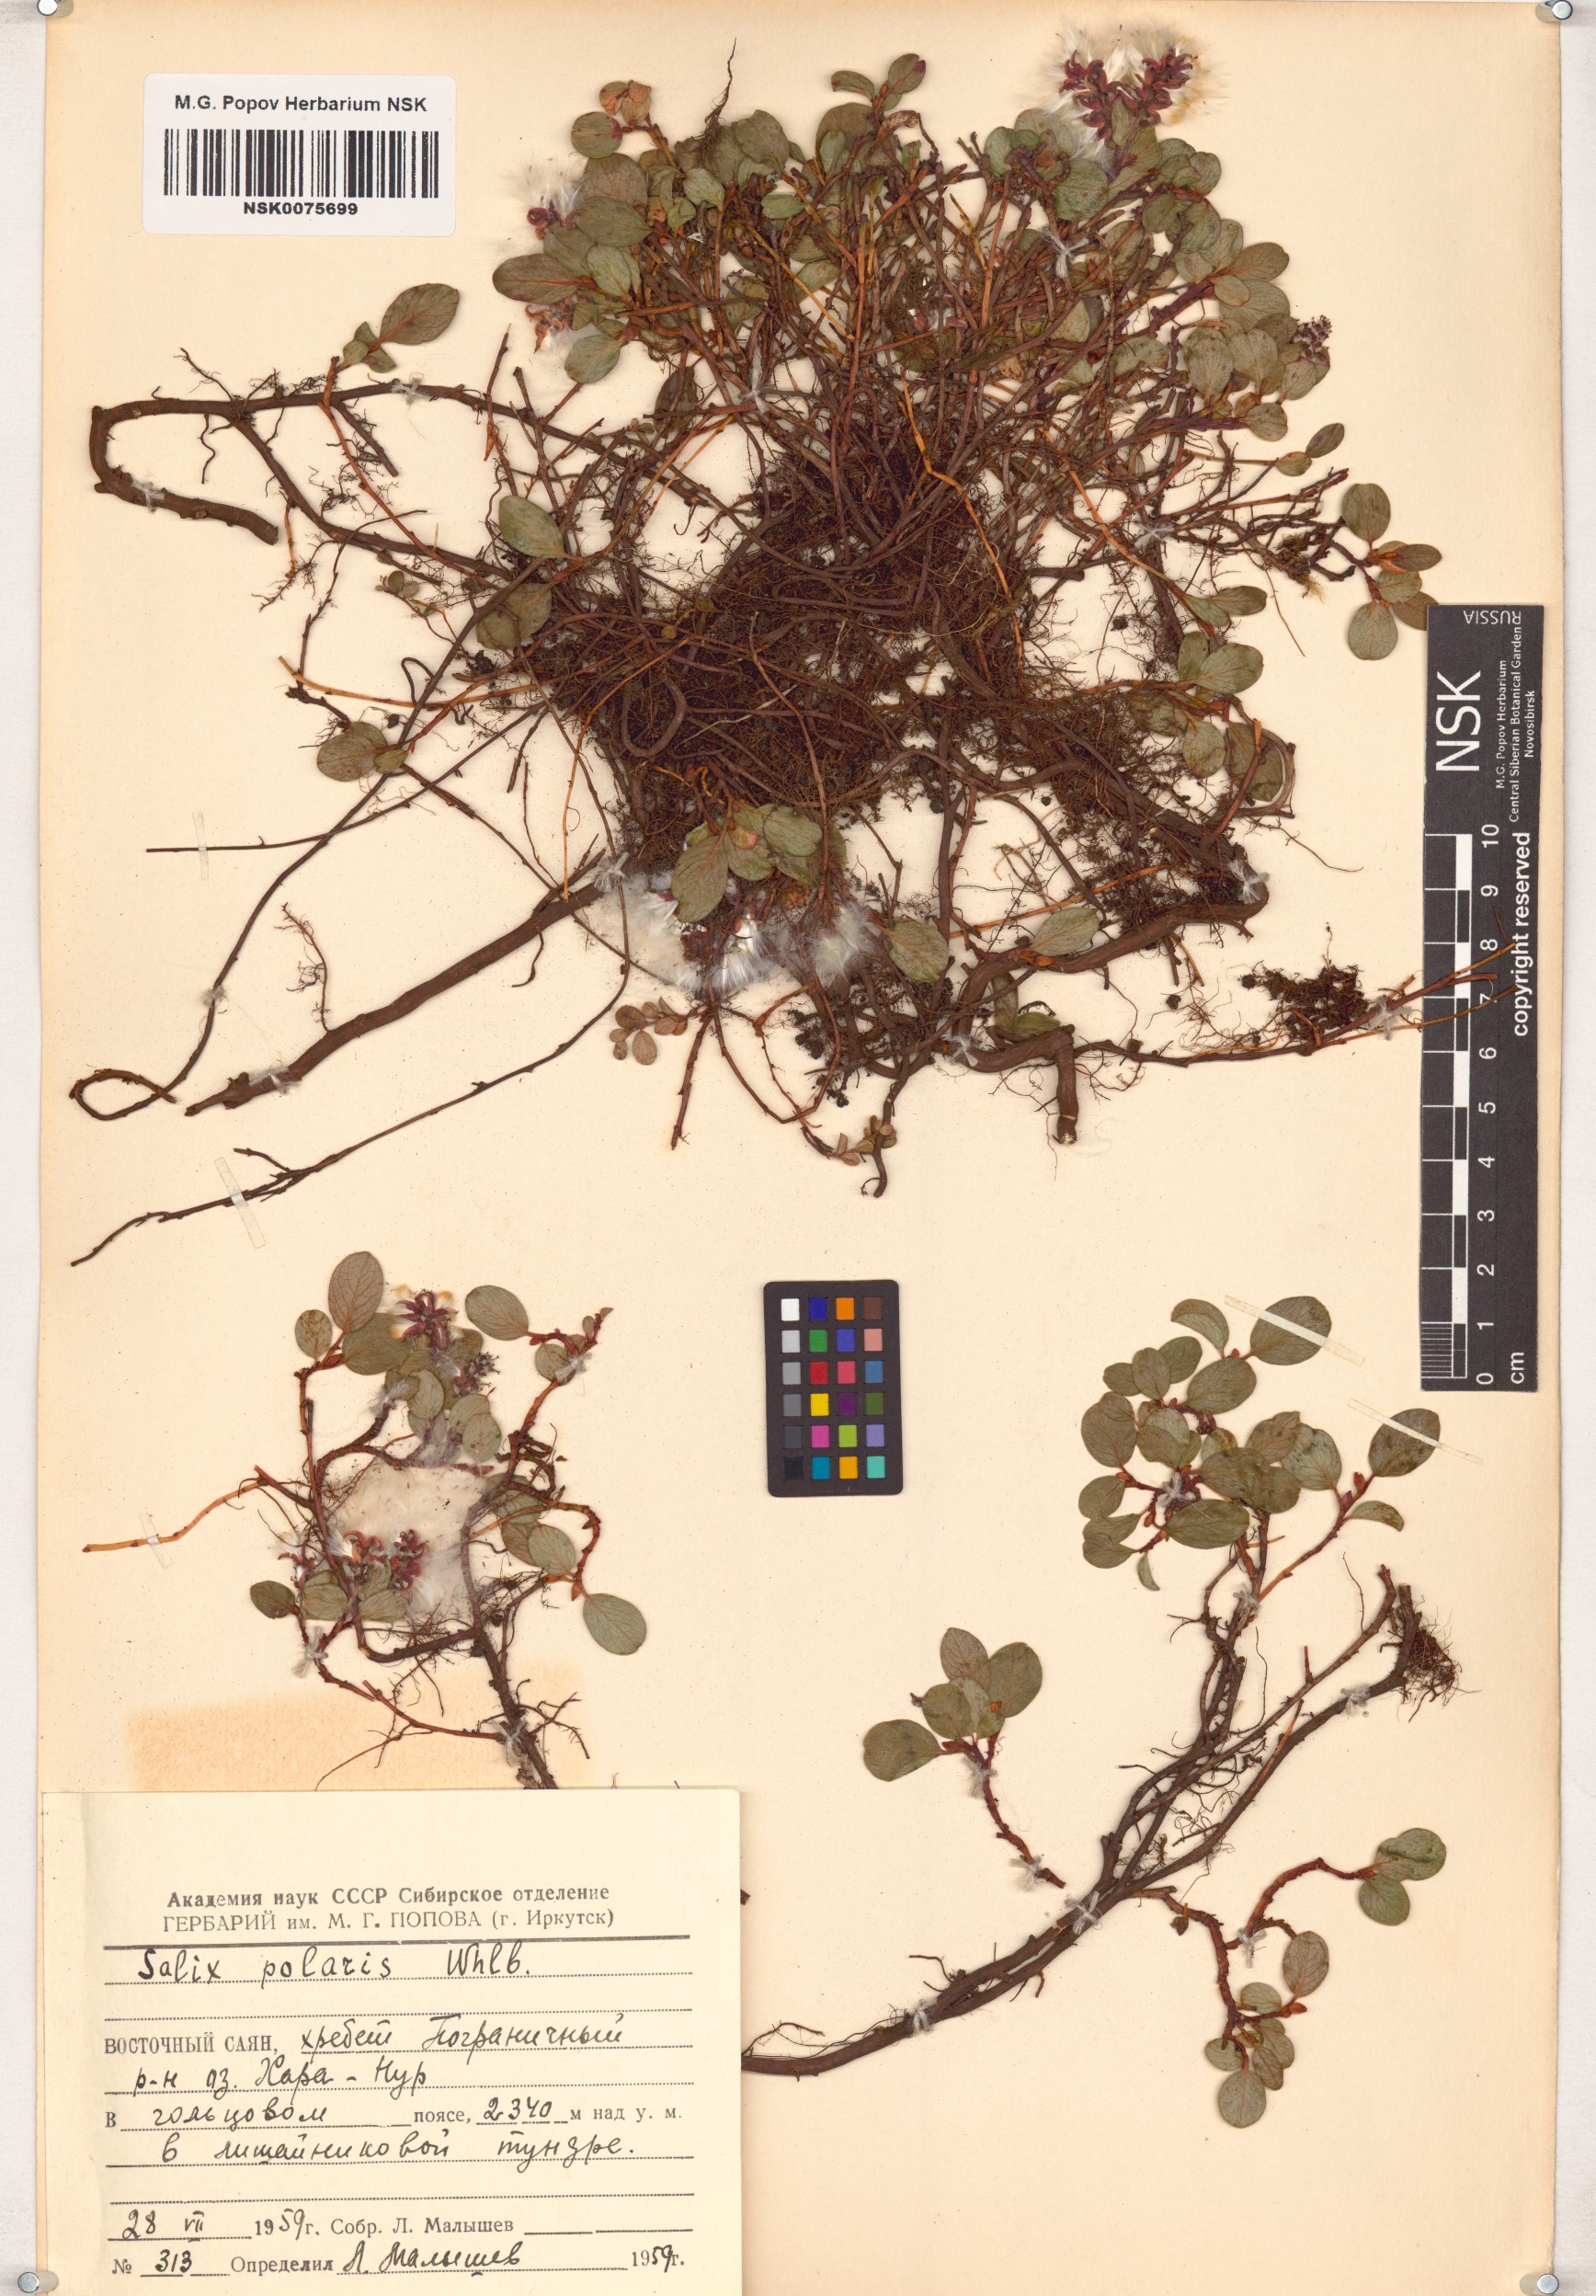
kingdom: Plantae
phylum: Tracheophyta
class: Magnoliopsida
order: Malpighiales
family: Salicaceae
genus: Salix
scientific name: Salix polaris
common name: Polar willow
